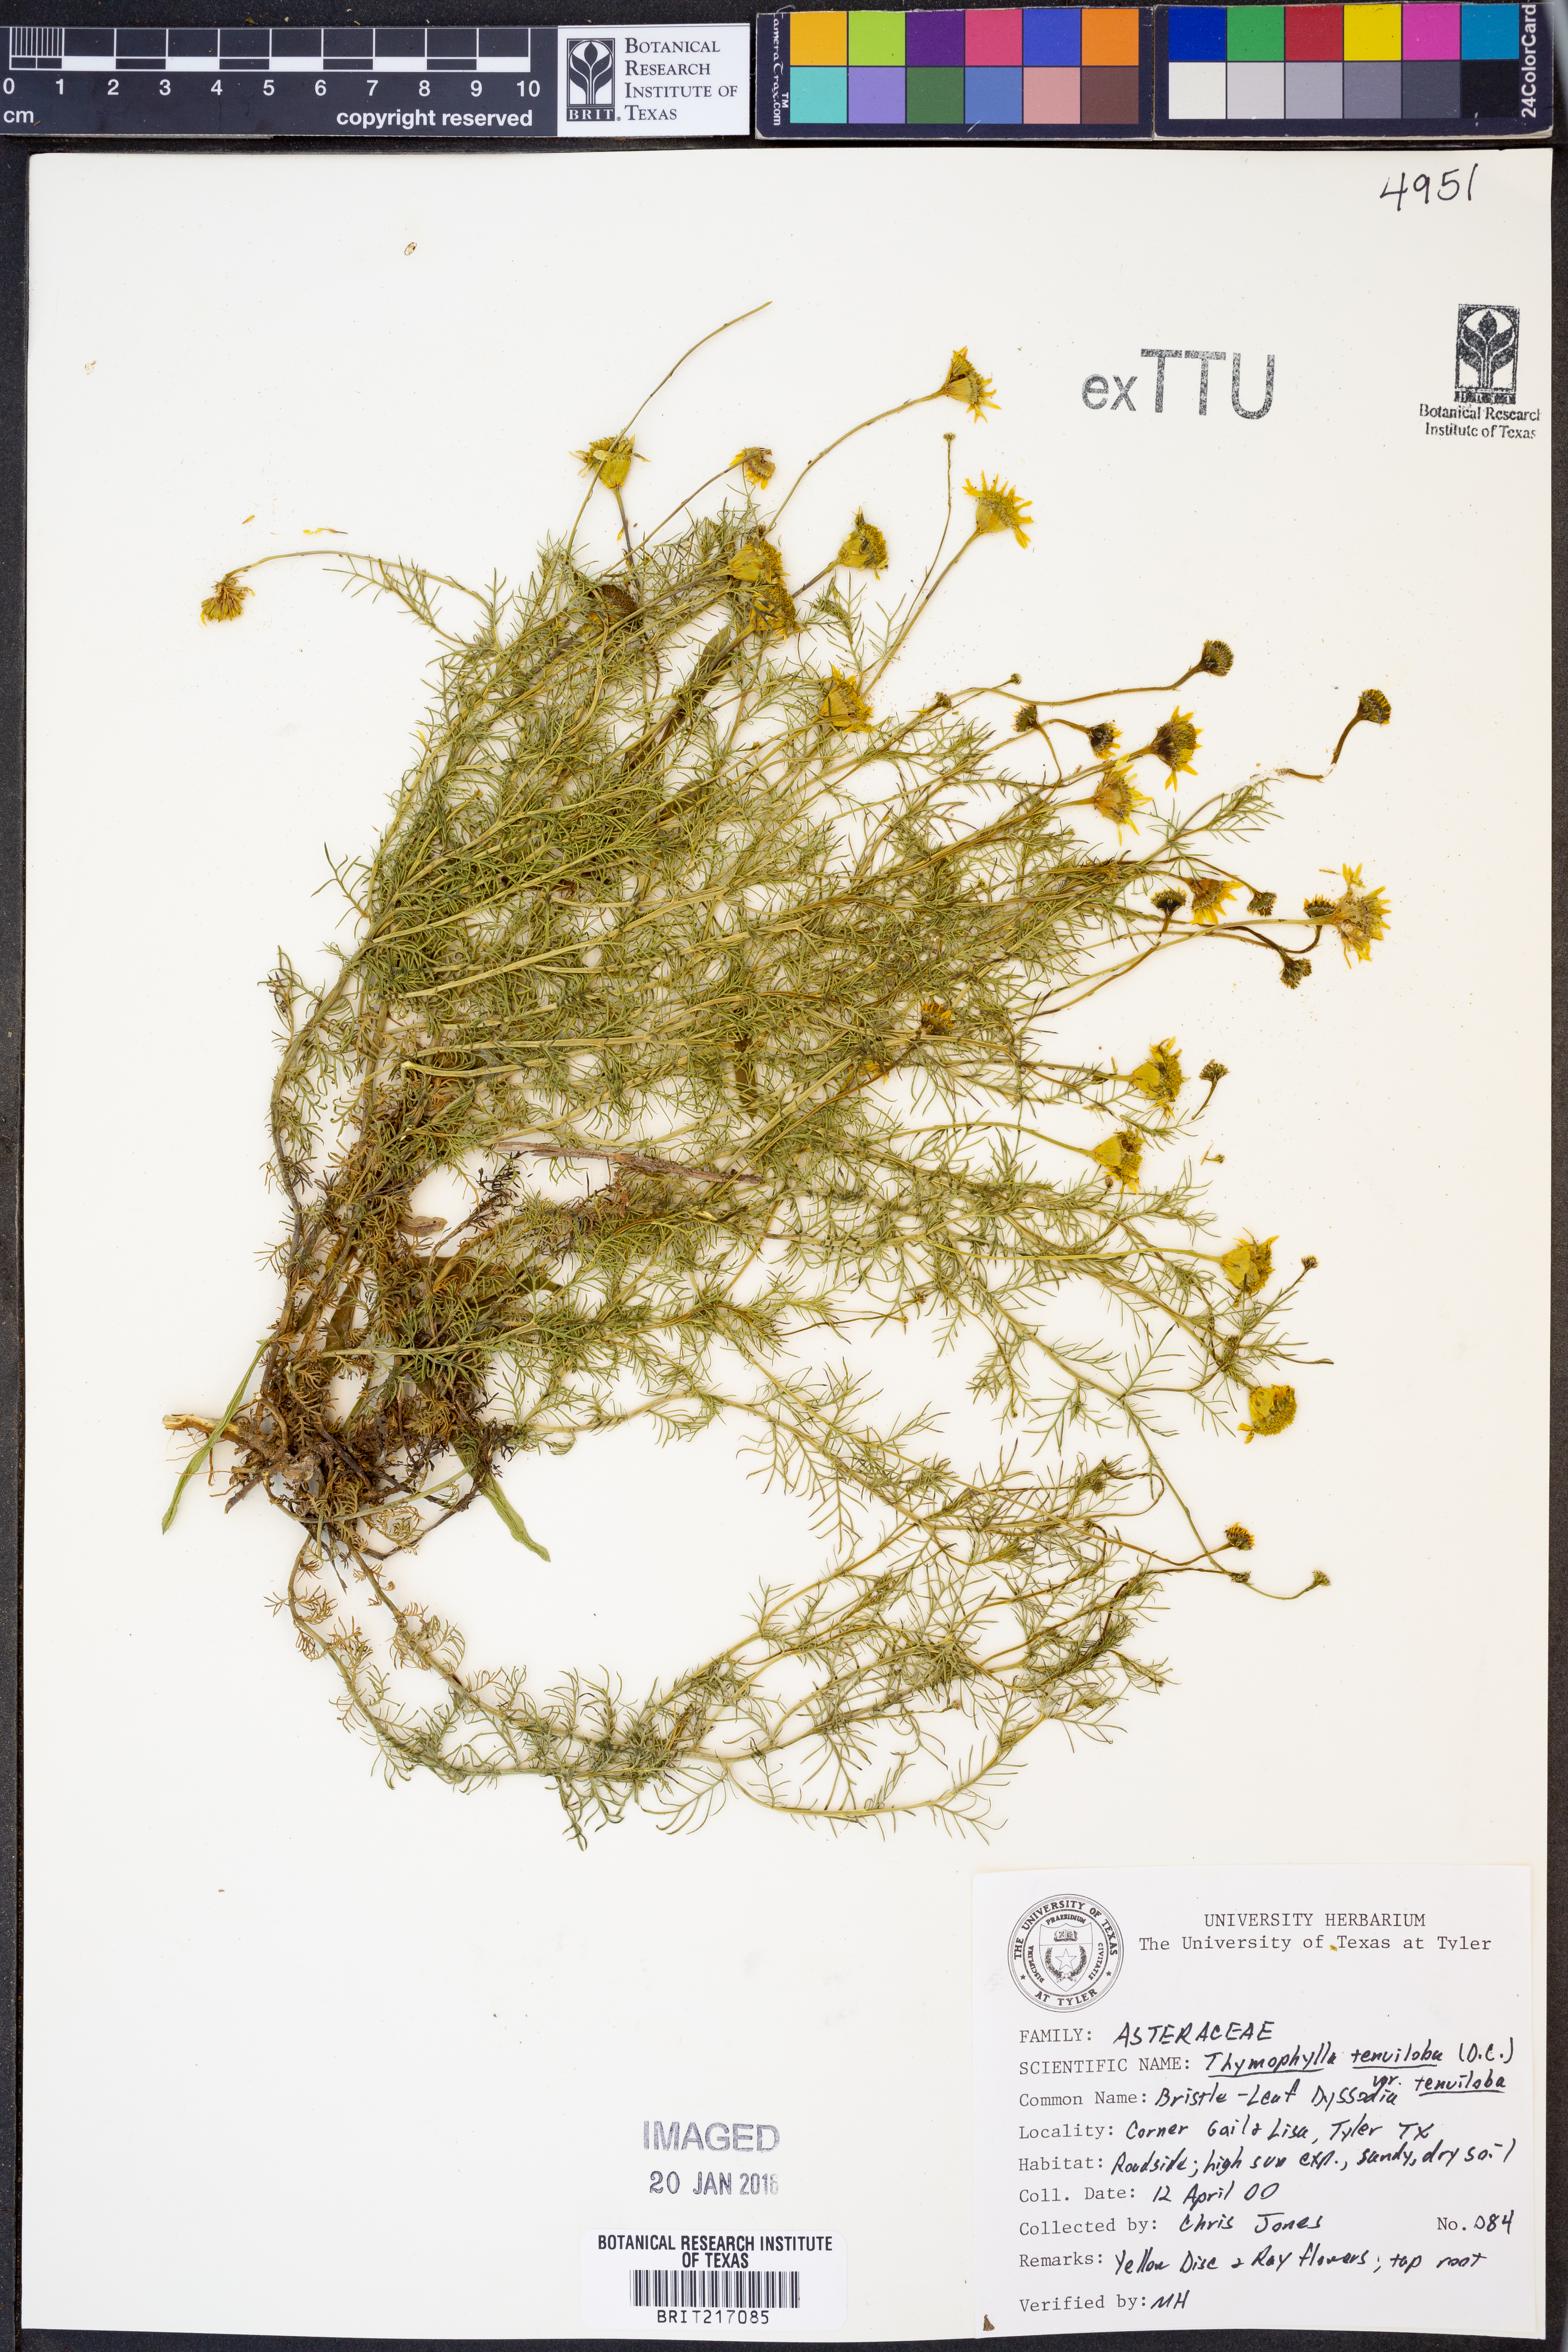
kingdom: Plantae
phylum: Tracheophyta
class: Magnoliopsida
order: Asterales
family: Asteraceae
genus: Thymophylla
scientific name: Thymophylla tenuiloba
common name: Dahlberg's daisy
